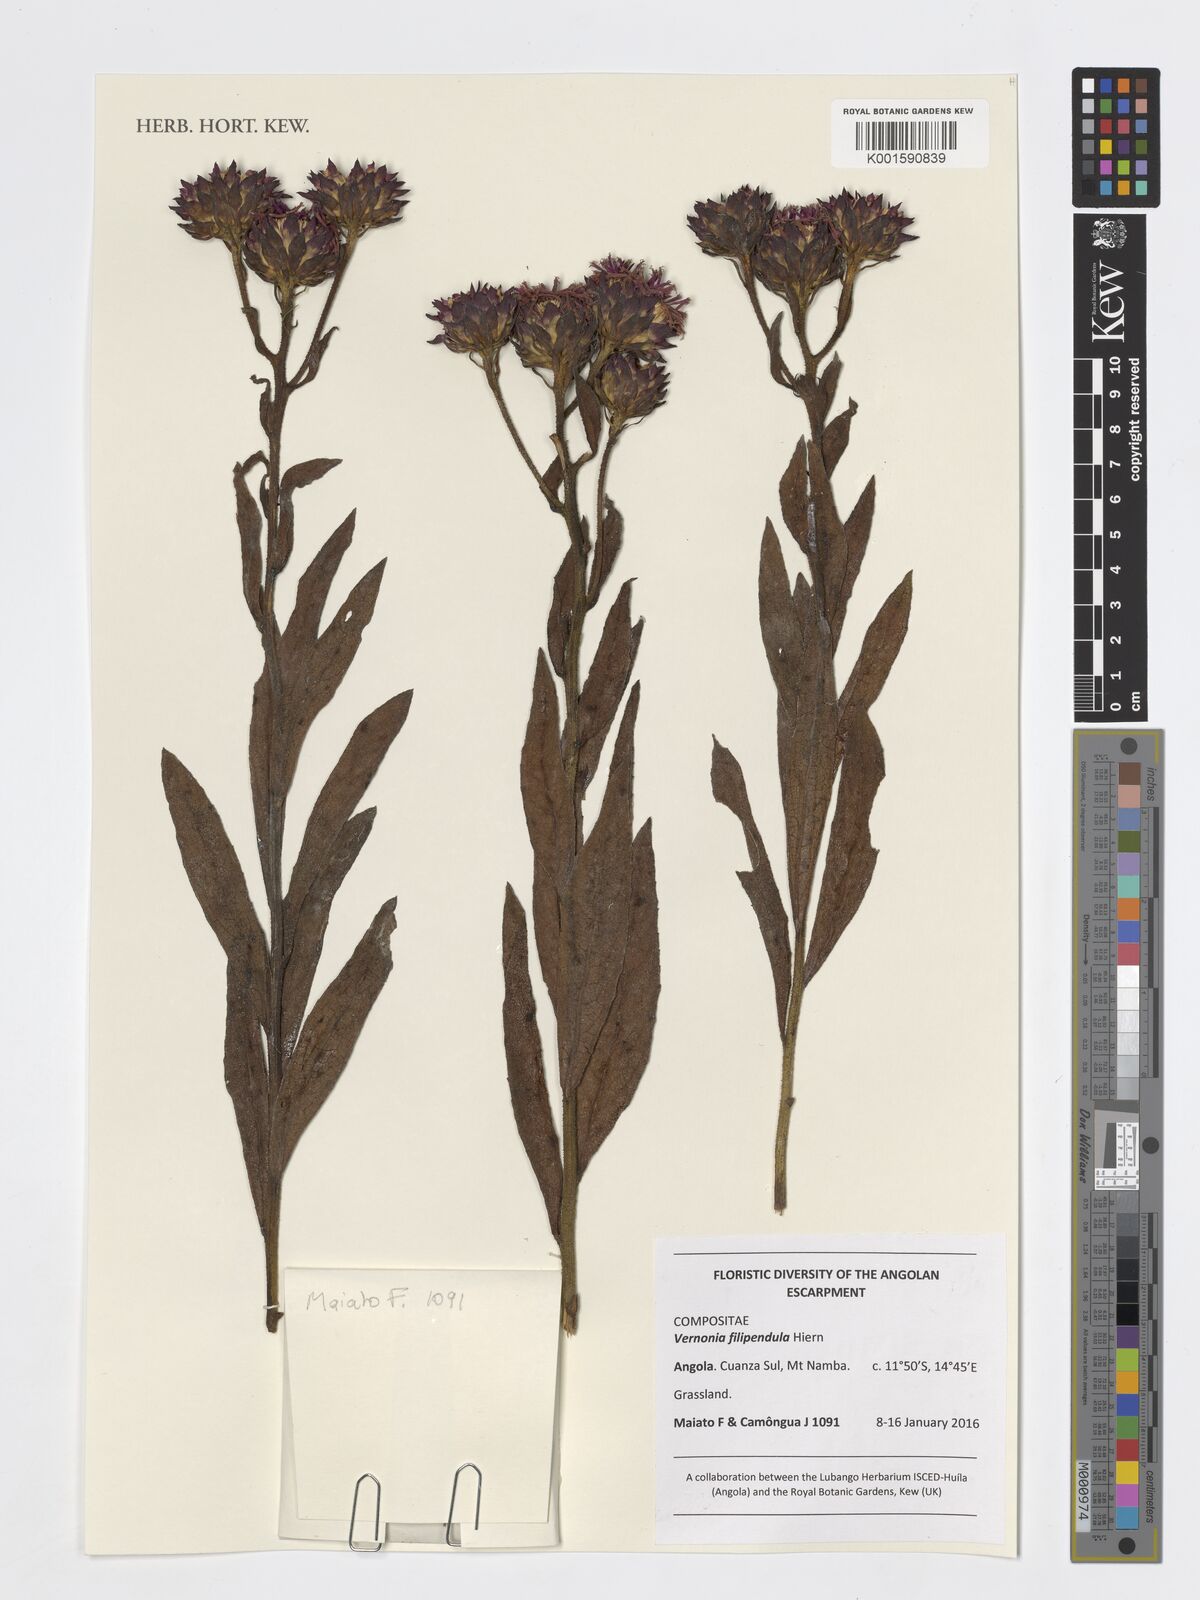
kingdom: Plantae
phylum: Tracheophyta
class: Magnoliopsida
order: Asterales
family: Asteraceae
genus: Baccharoides
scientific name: Baccharoides filipendula
